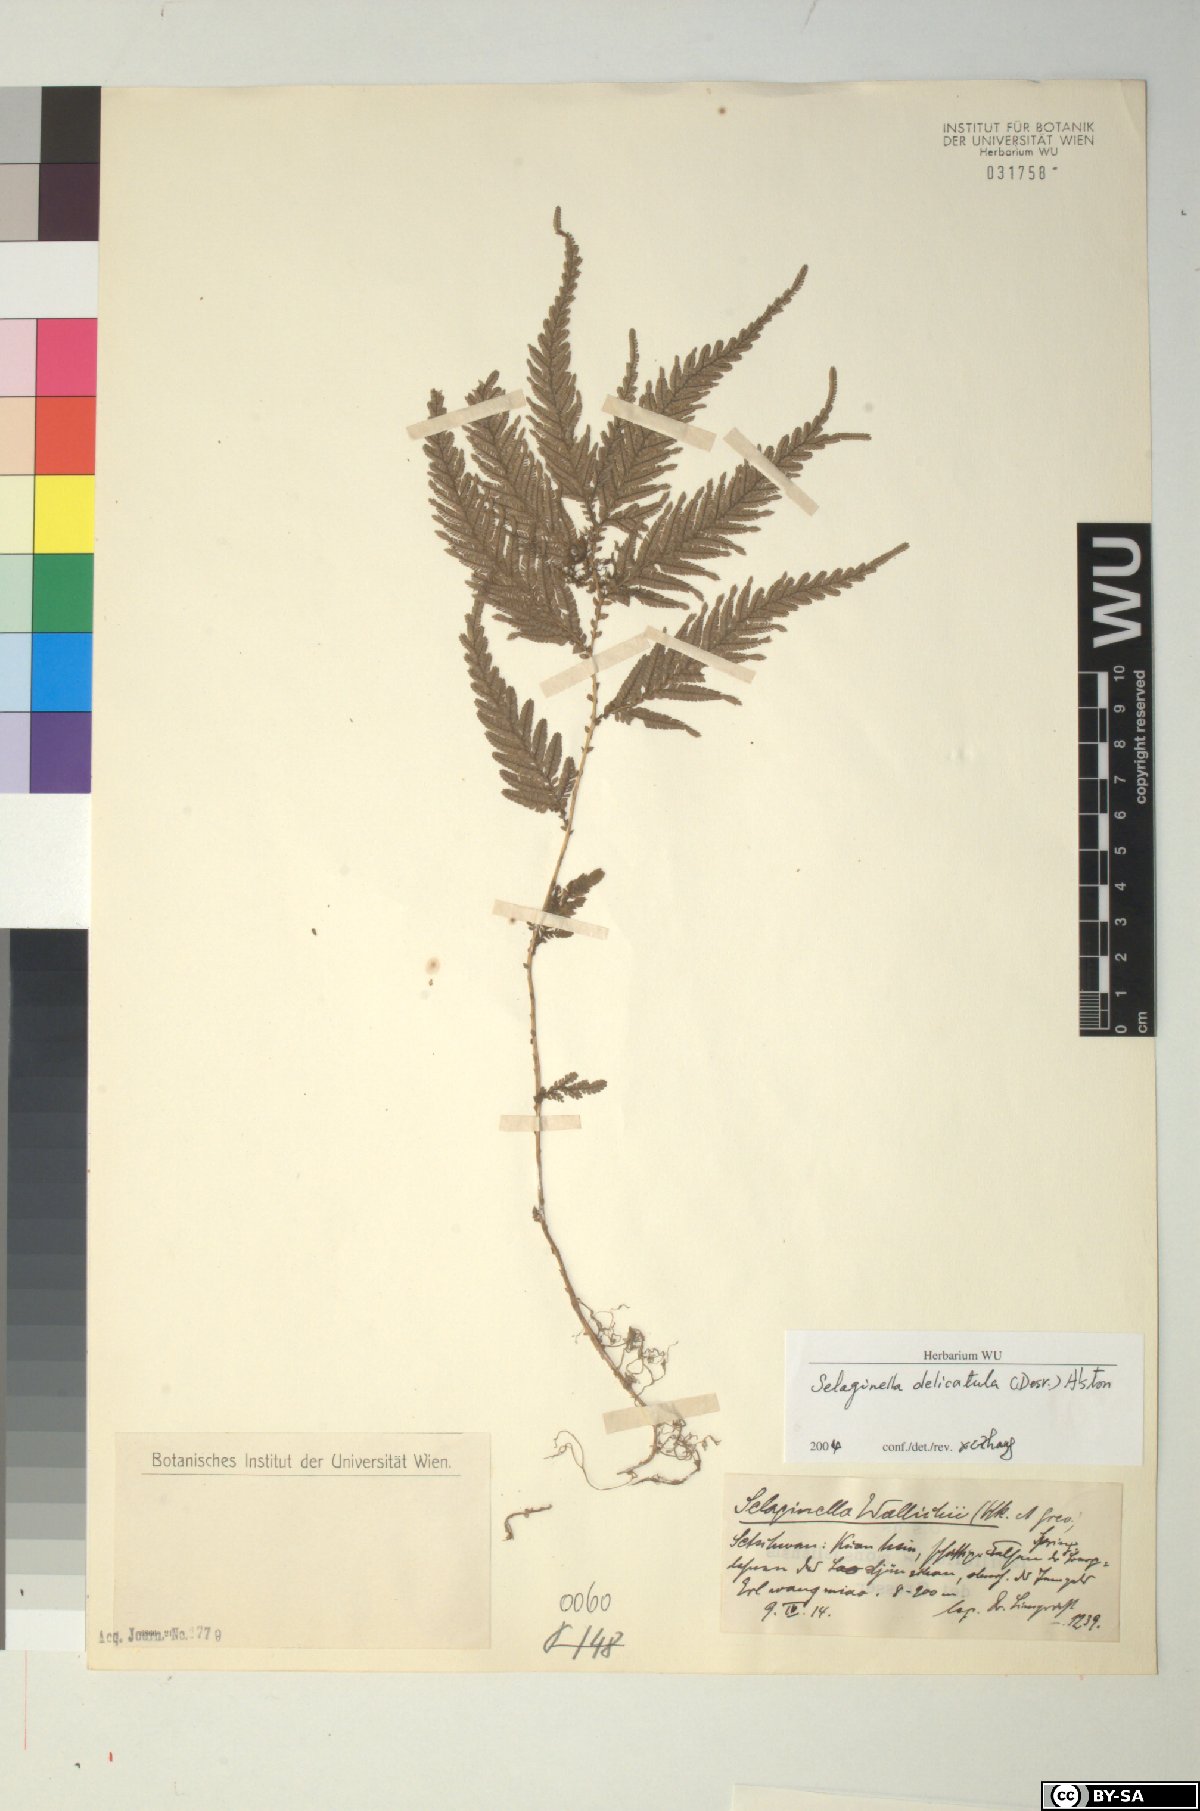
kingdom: Plantae
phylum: Tracheophyta
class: Lycopodiopsida
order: Selaginellales
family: Selaginellaceae
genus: Selaginella
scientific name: Selaginella delicatula
